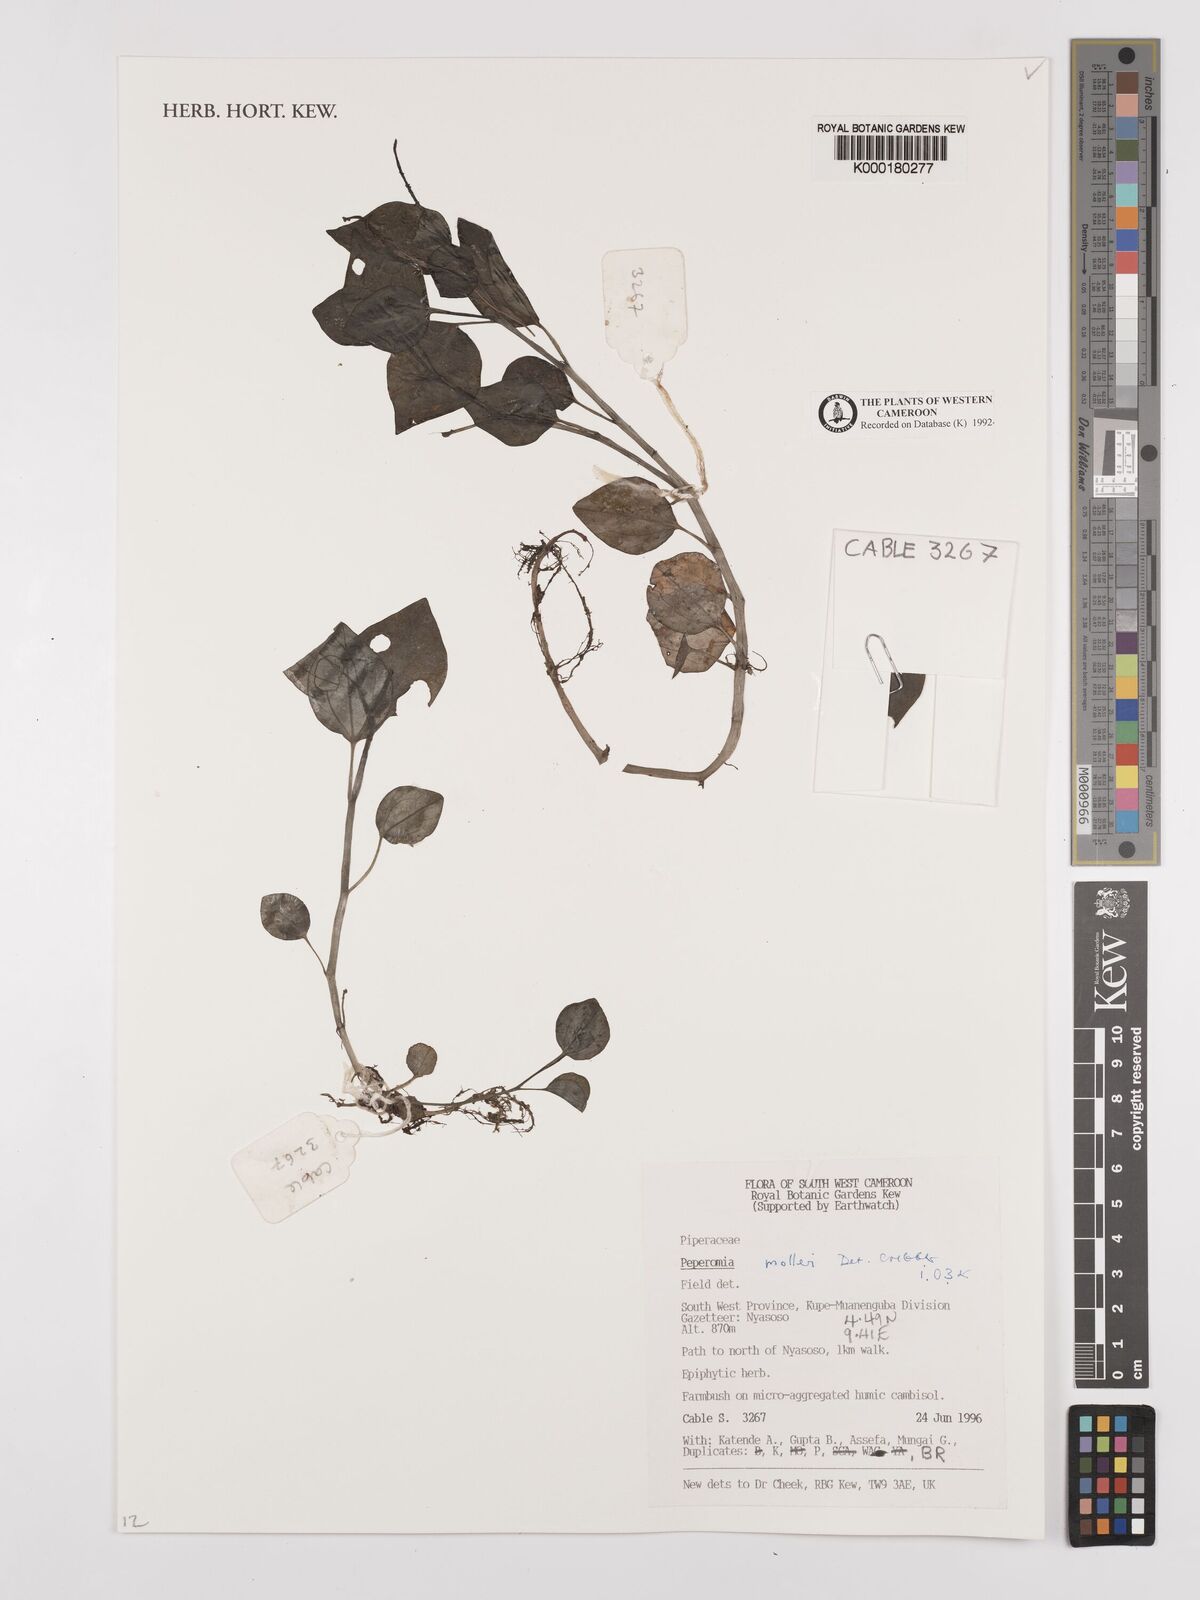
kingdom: Plantae
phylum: Tracheophyta
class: Magnoliopsida
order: Piperales
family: Piperaceae
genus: Peperomia
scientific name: Peperomia molleri
